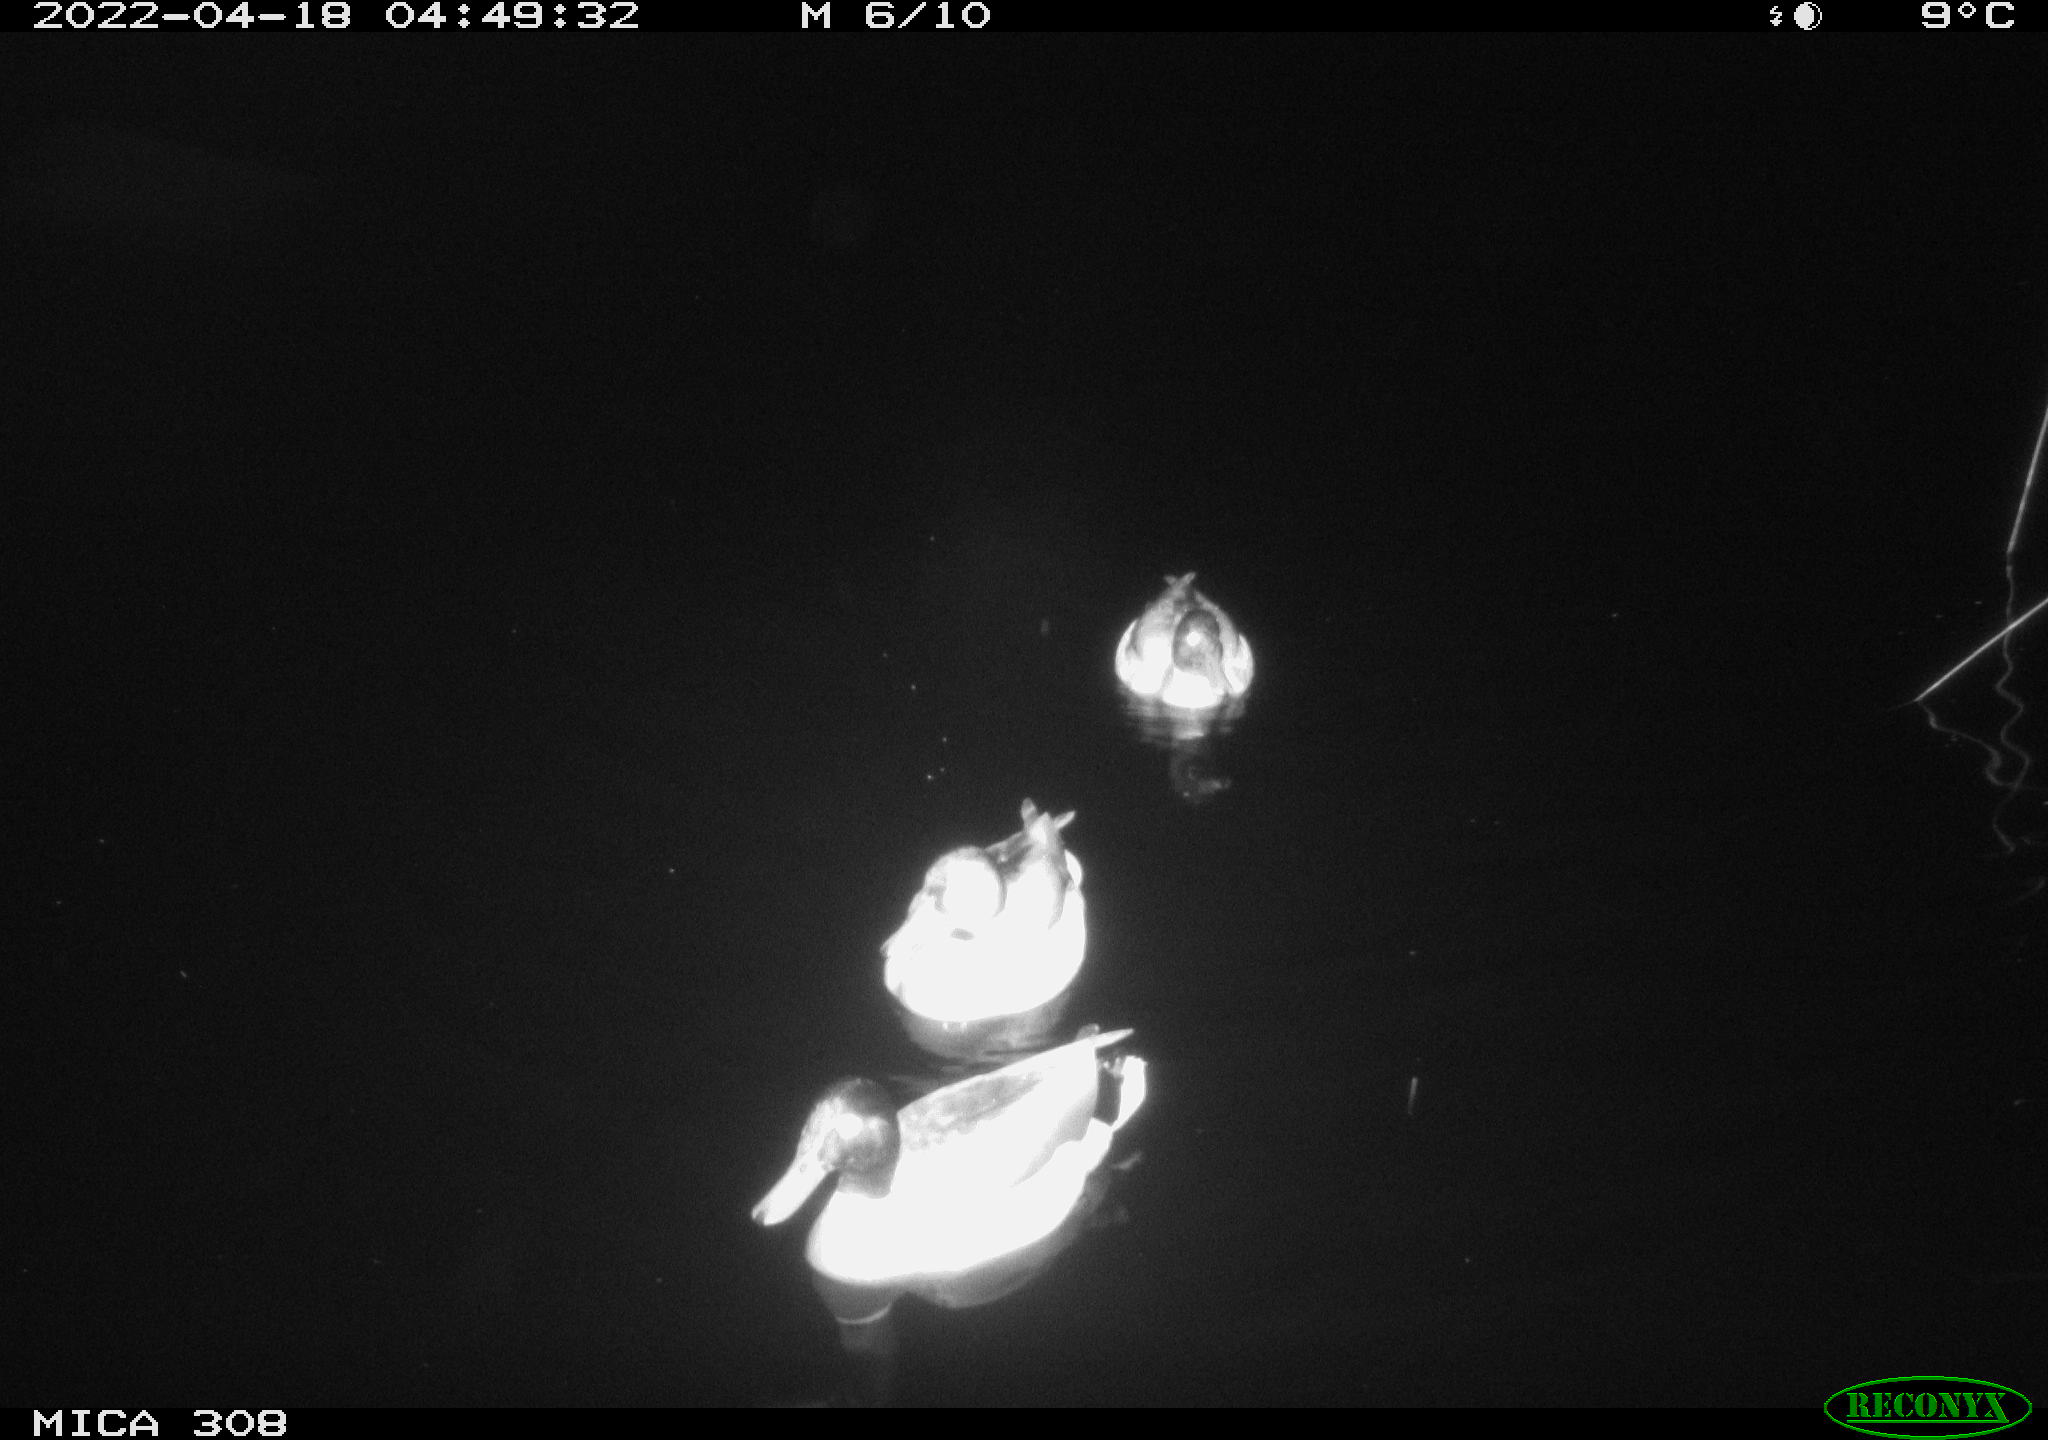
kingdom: Animalia
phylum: Chordata
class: Aves
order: Anseriformes
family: Anatidae
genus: Anas
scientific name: Anas platyrhynchos
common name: Mallard
